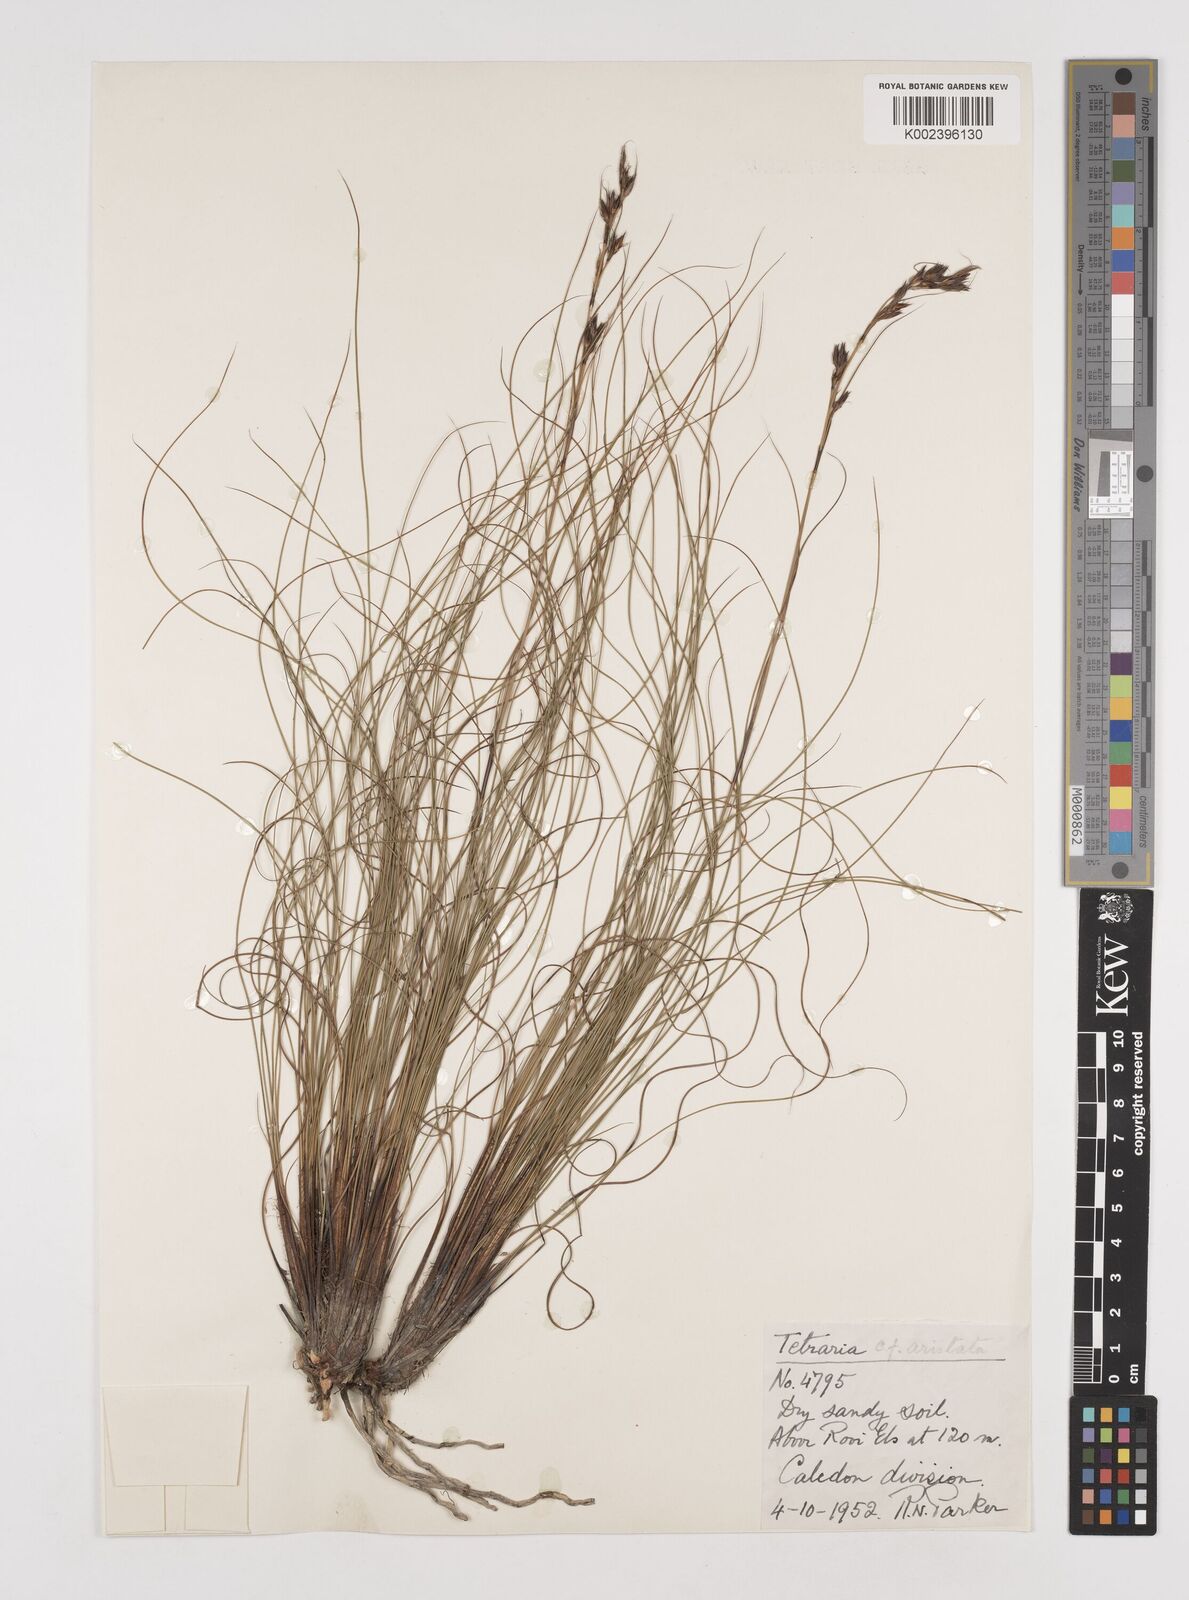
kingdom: Plantae
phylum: Tracheophyta
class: Liliopsida
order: Poales
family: Cyperaceae
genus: Tetraria
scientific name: Tetraria flexuosa
